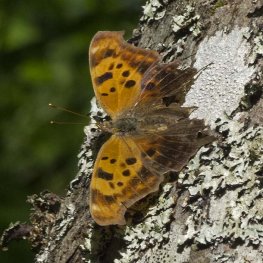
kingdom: Animalia
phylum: Arthropoda
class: Insecta
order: Lepidoptera
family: Nymphalidae
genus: Polygonia
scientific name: Polygonia interrogationis
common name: Question Mark
